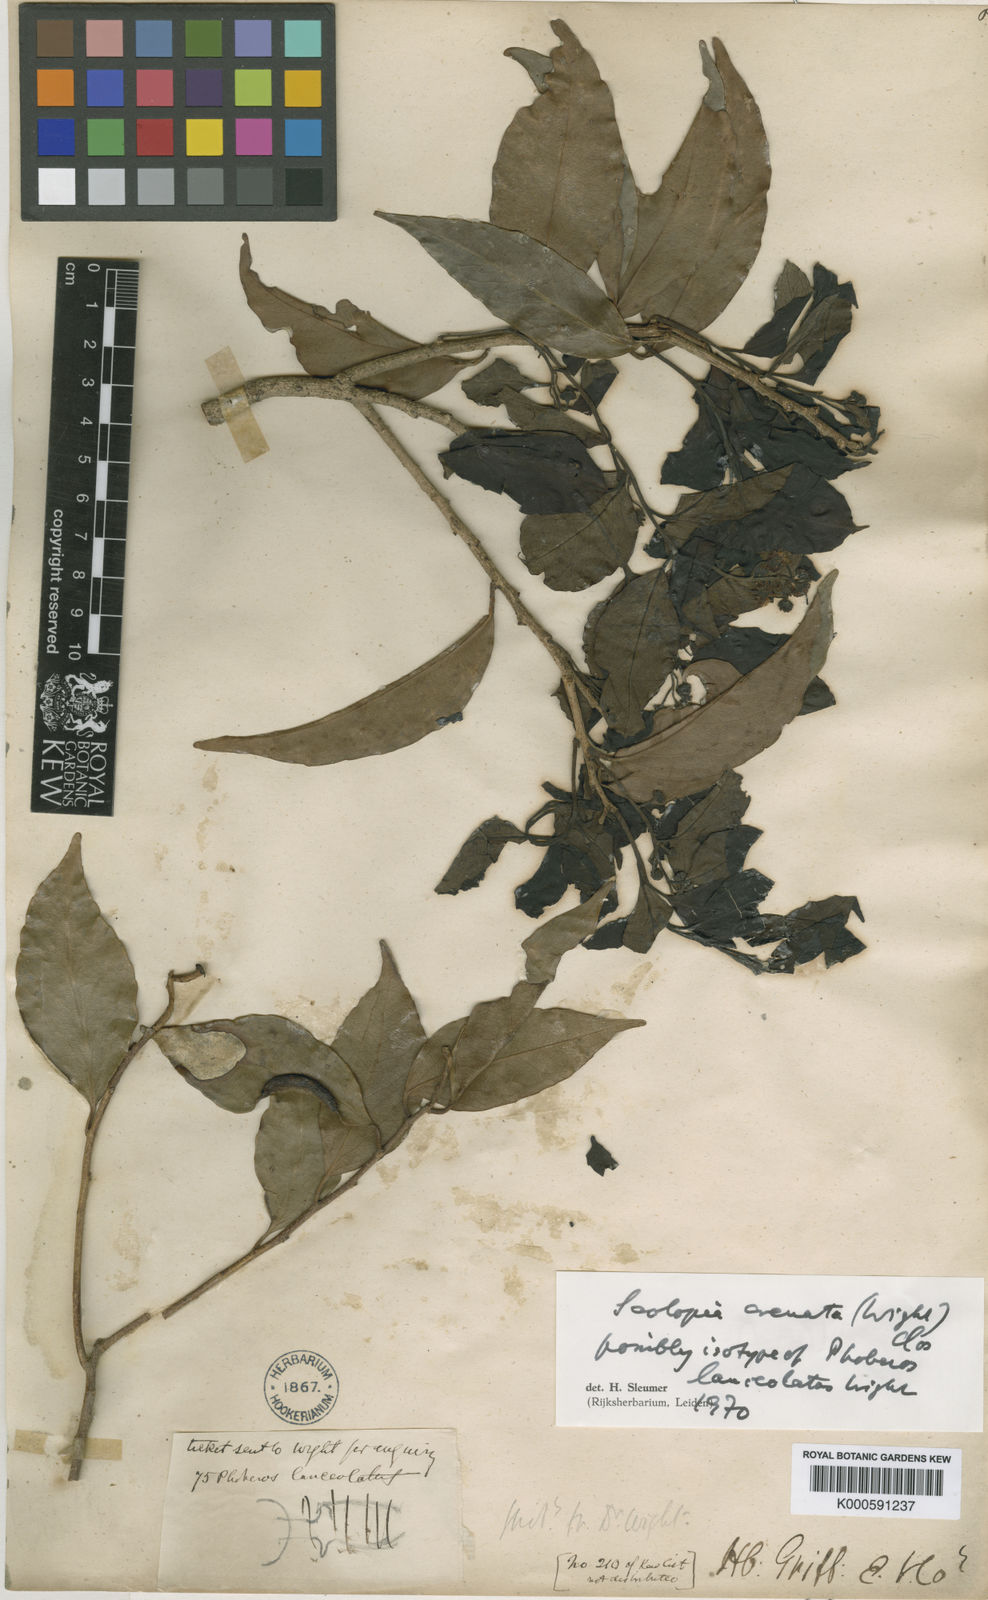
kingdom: Plantae
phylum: Tracheophyta
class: Magnoliopsida
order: Malpighiales
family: Salicaceae
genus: Scolopia
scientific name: Scolopia crenata
